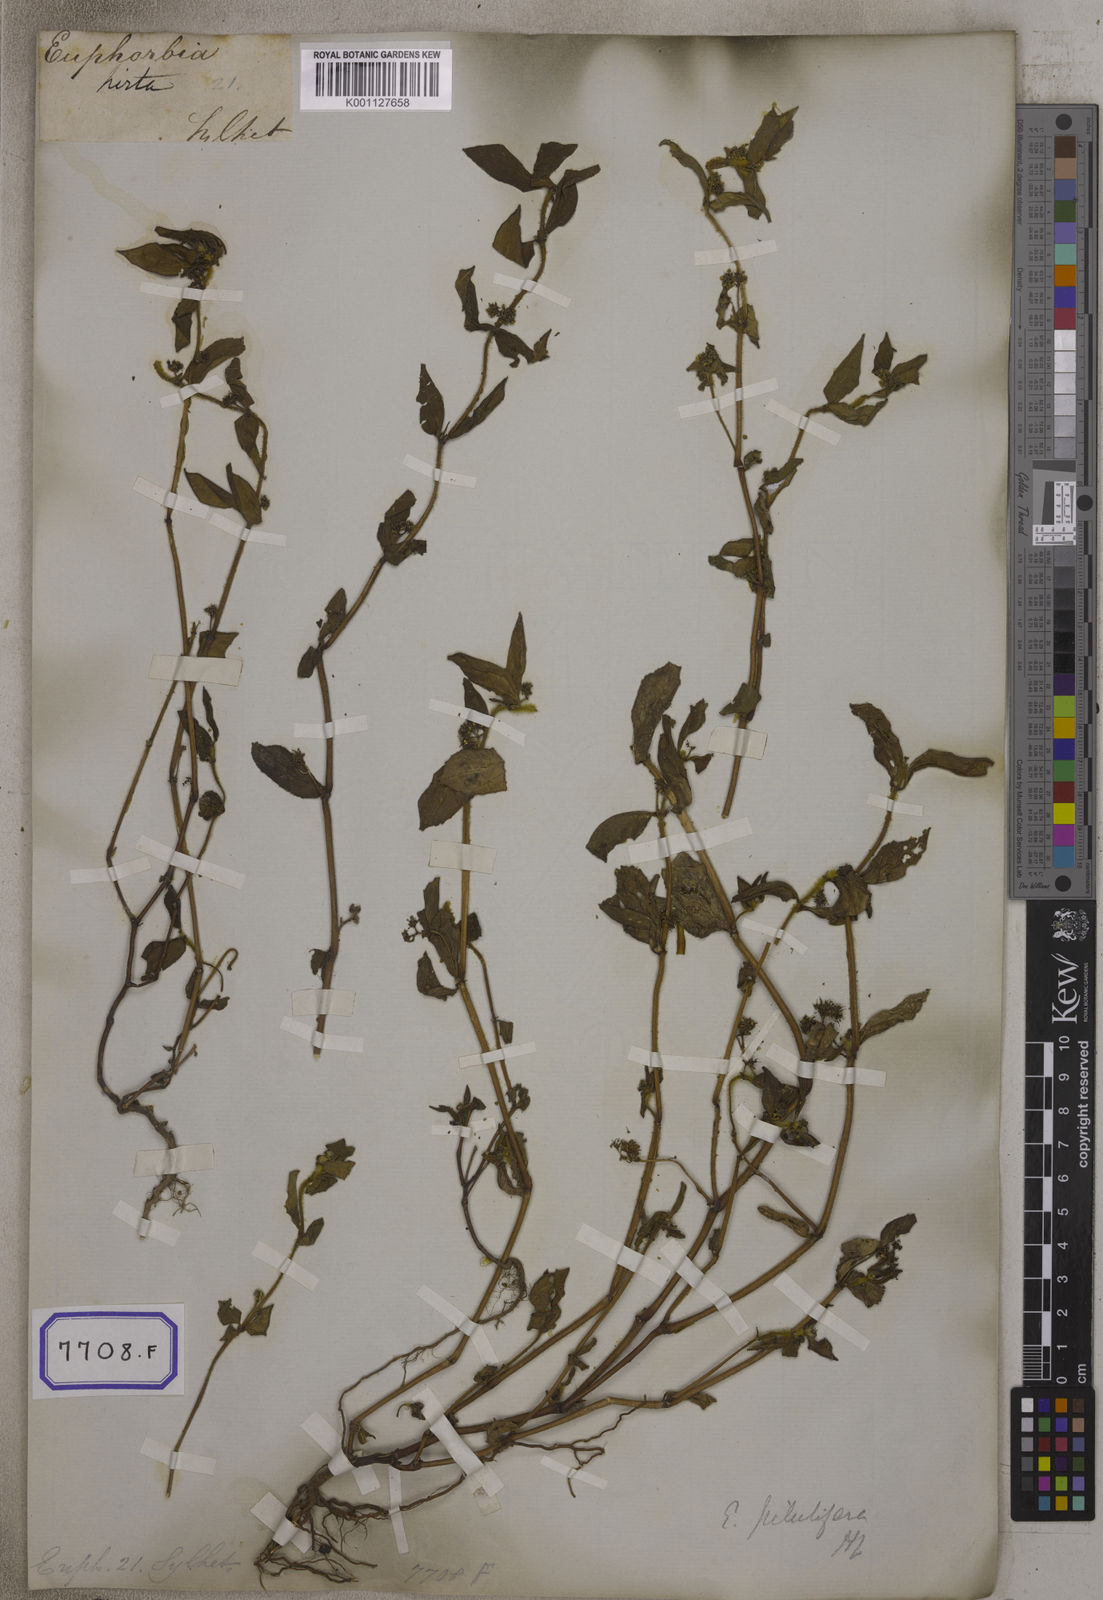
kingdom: Plantae
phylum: Tracheophyta
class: Magnoliopsida
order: Malpighiales
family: Euphorbiaceae
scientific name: Euphorbiaceae
